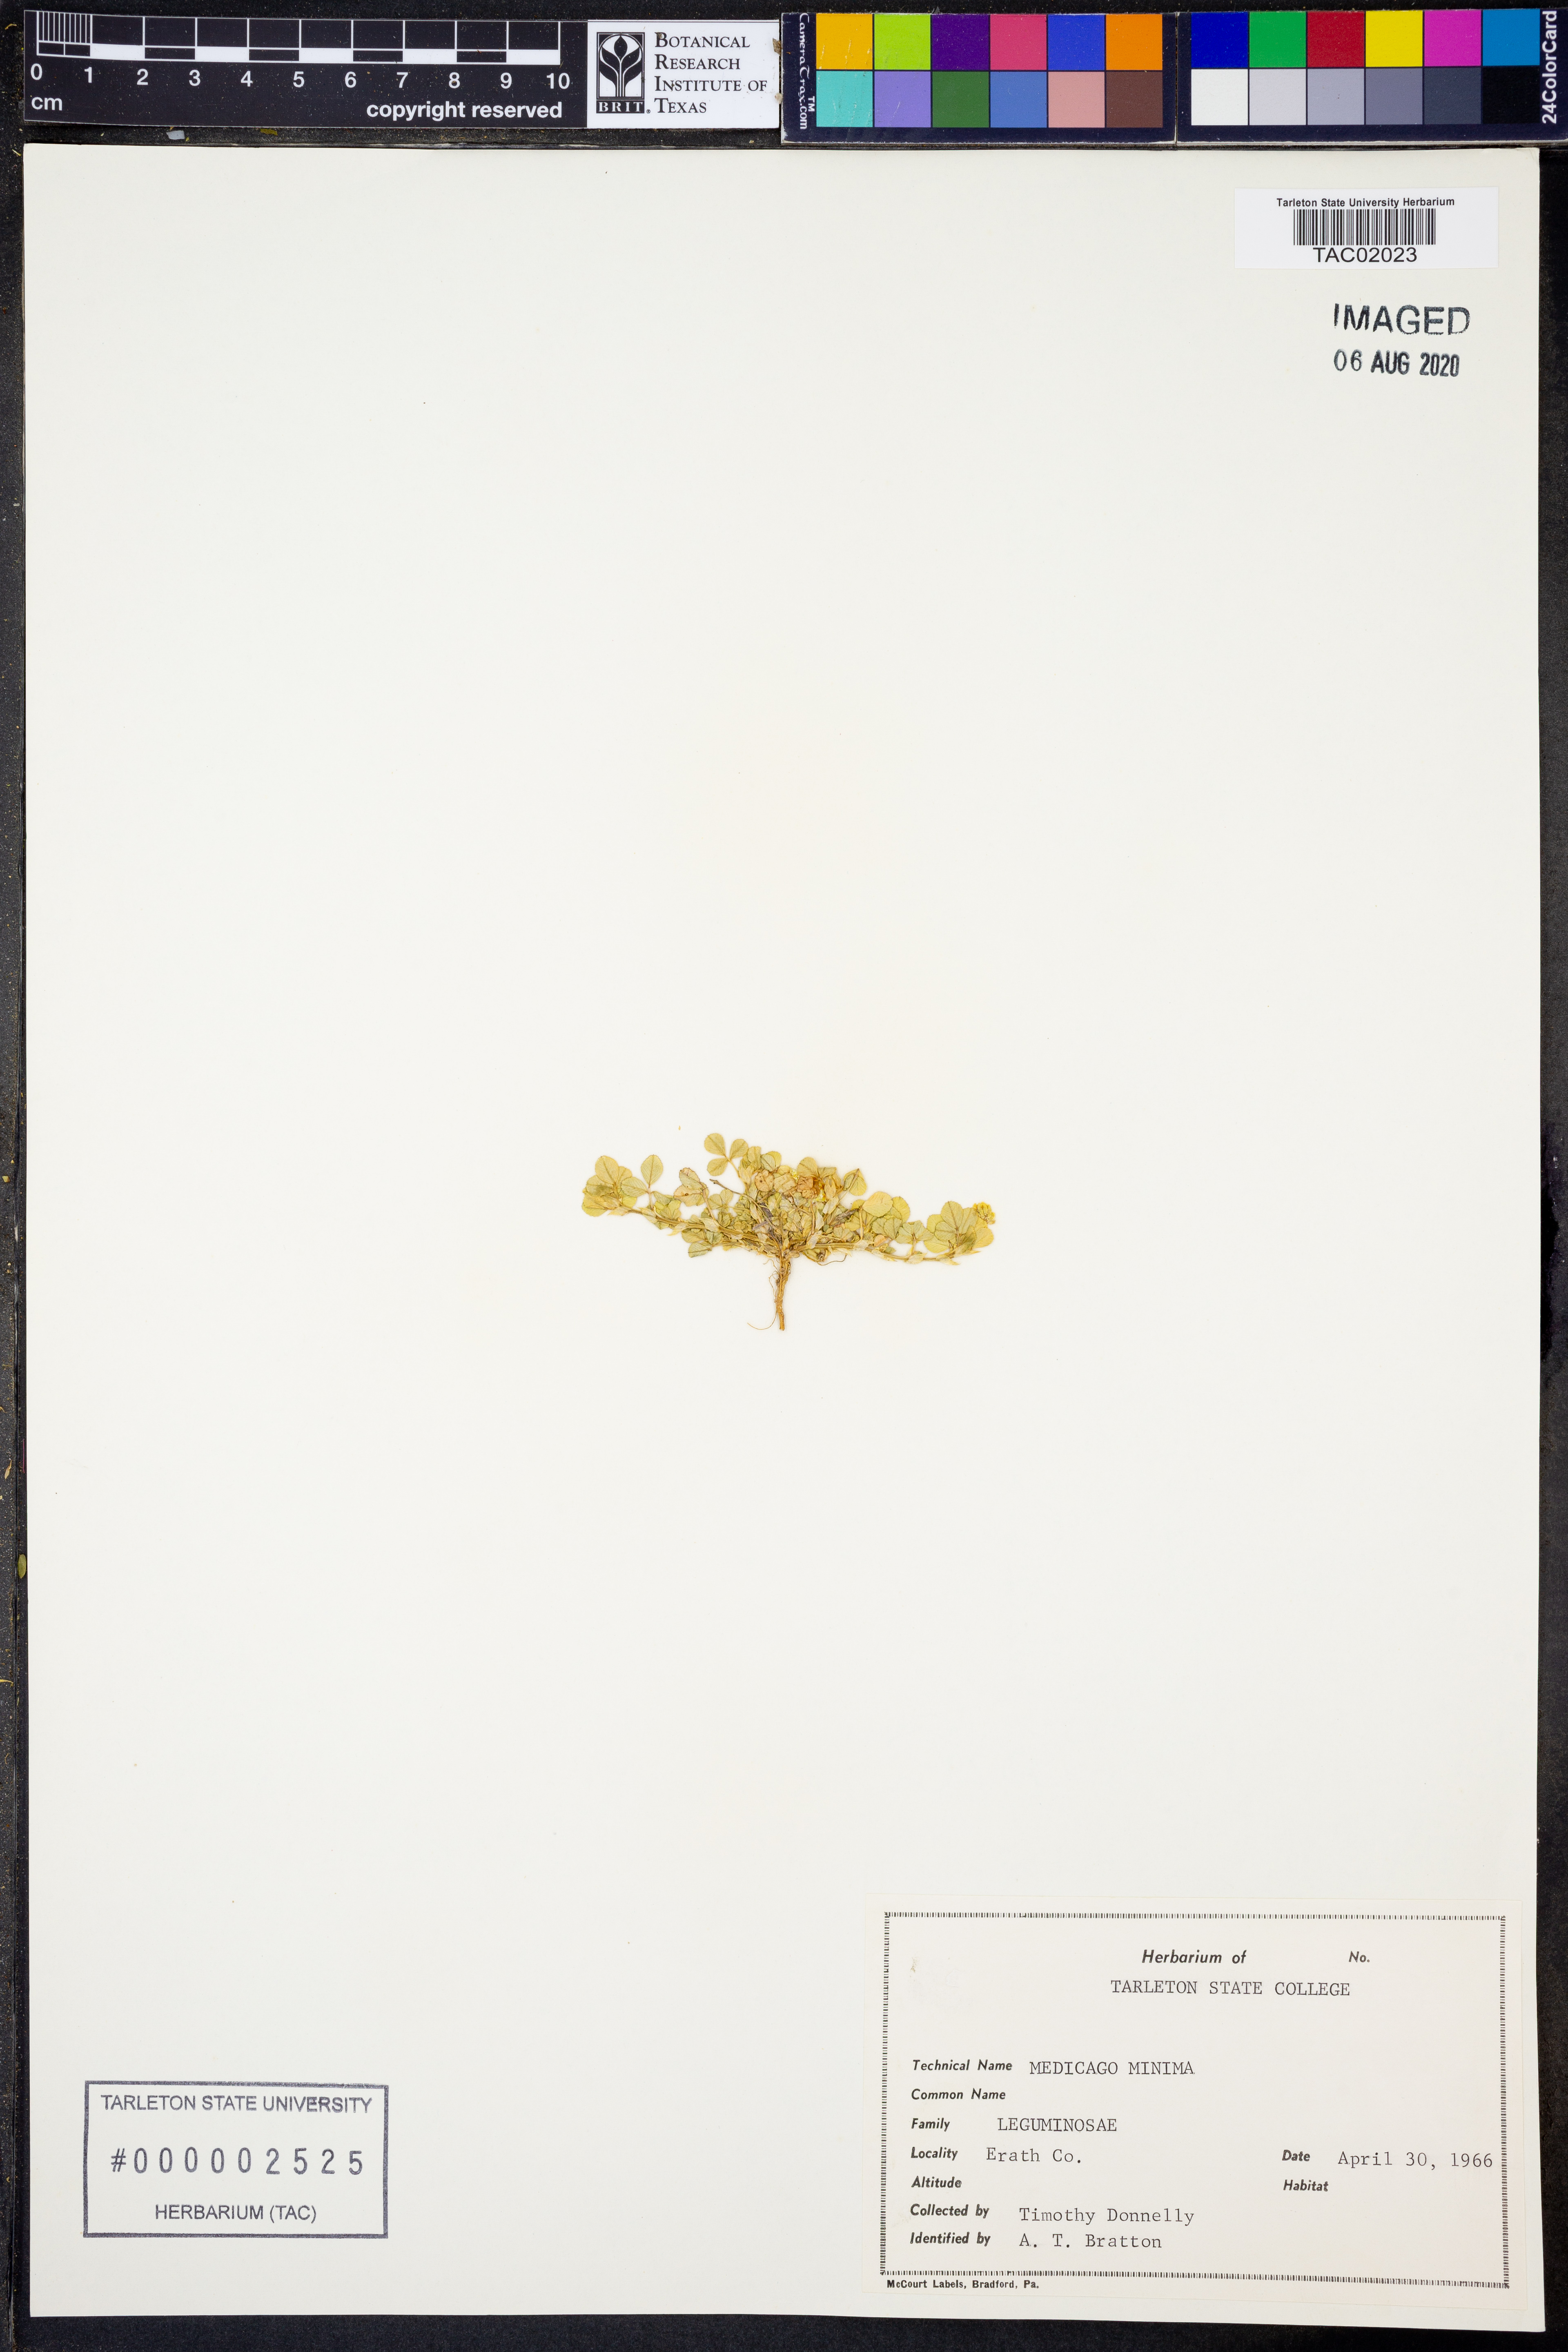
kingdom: Plantae
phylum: Tracheophyta
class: Magnoliopsida
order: Fabales
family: Fabaceae
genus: Medicago
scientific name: Medicago minima
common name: Little bur-clover
